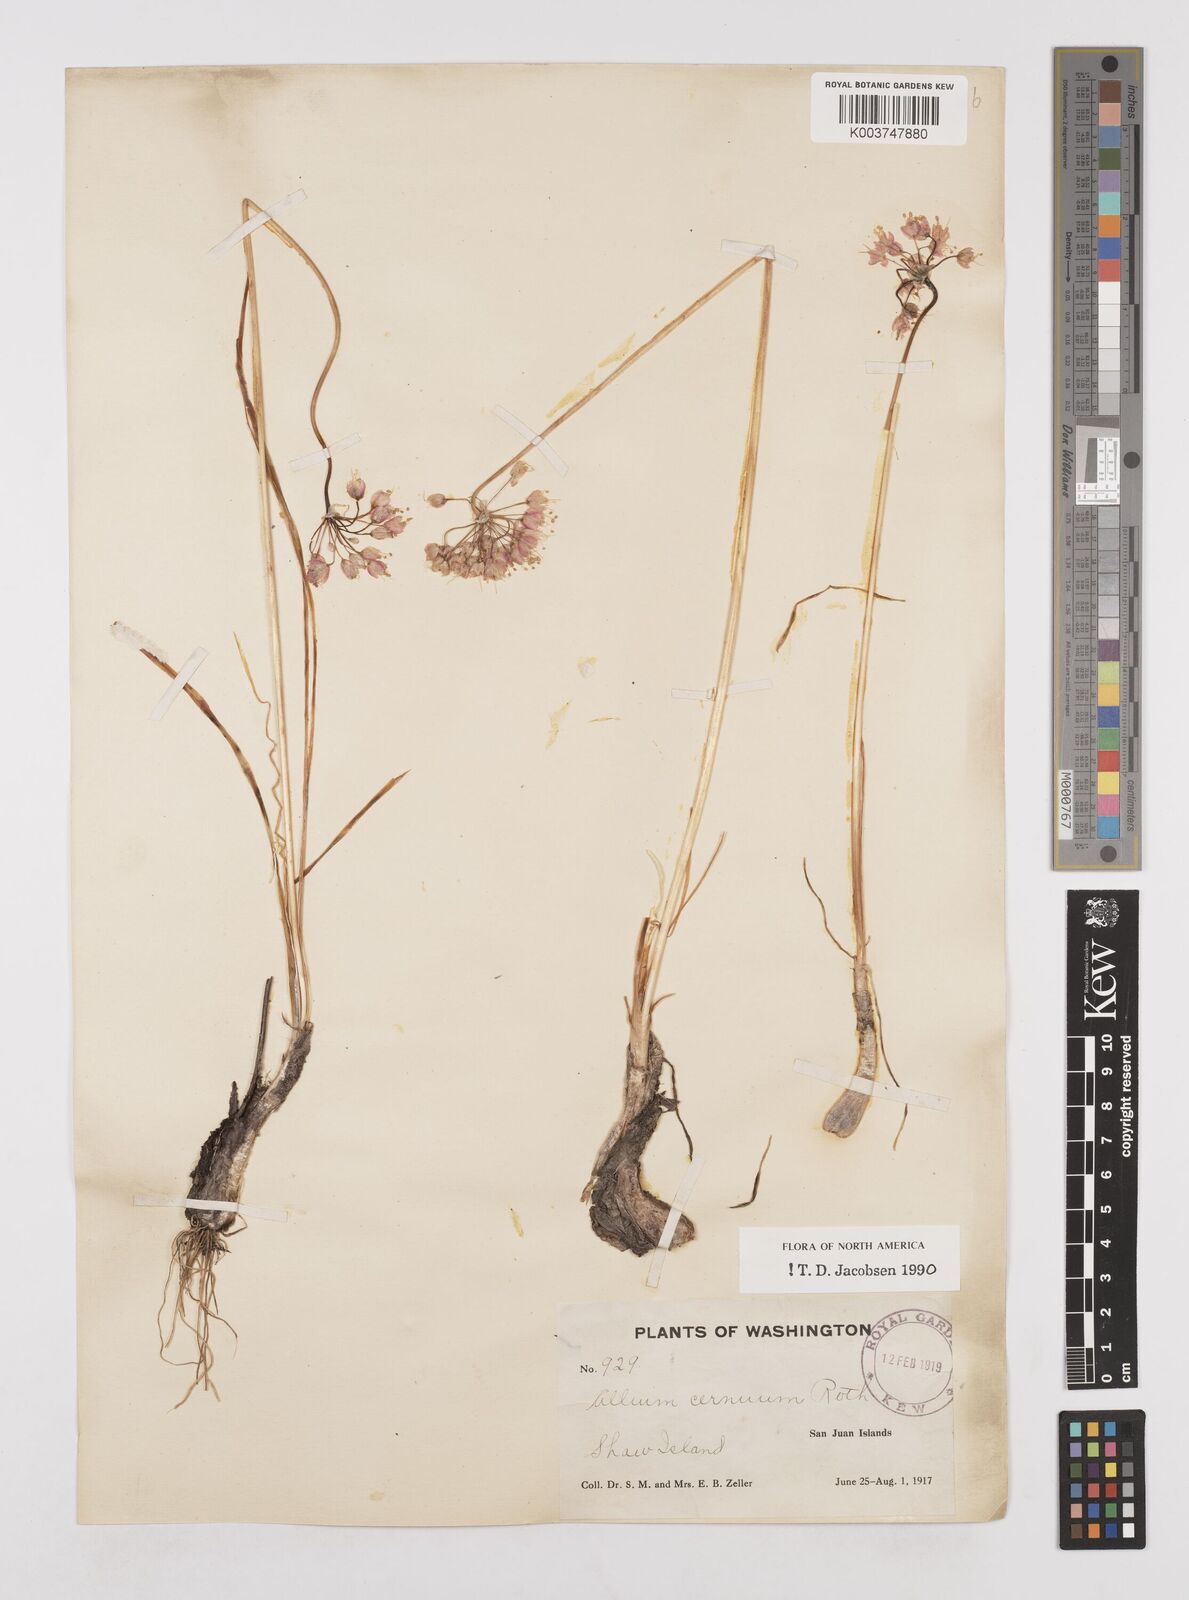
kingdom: Plantae
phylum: Tracheophyta
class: Liliopsida
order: Asparagales
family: Amaryllidaceae
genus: Allium
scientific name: Allium cernuum
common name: Nodding onion
